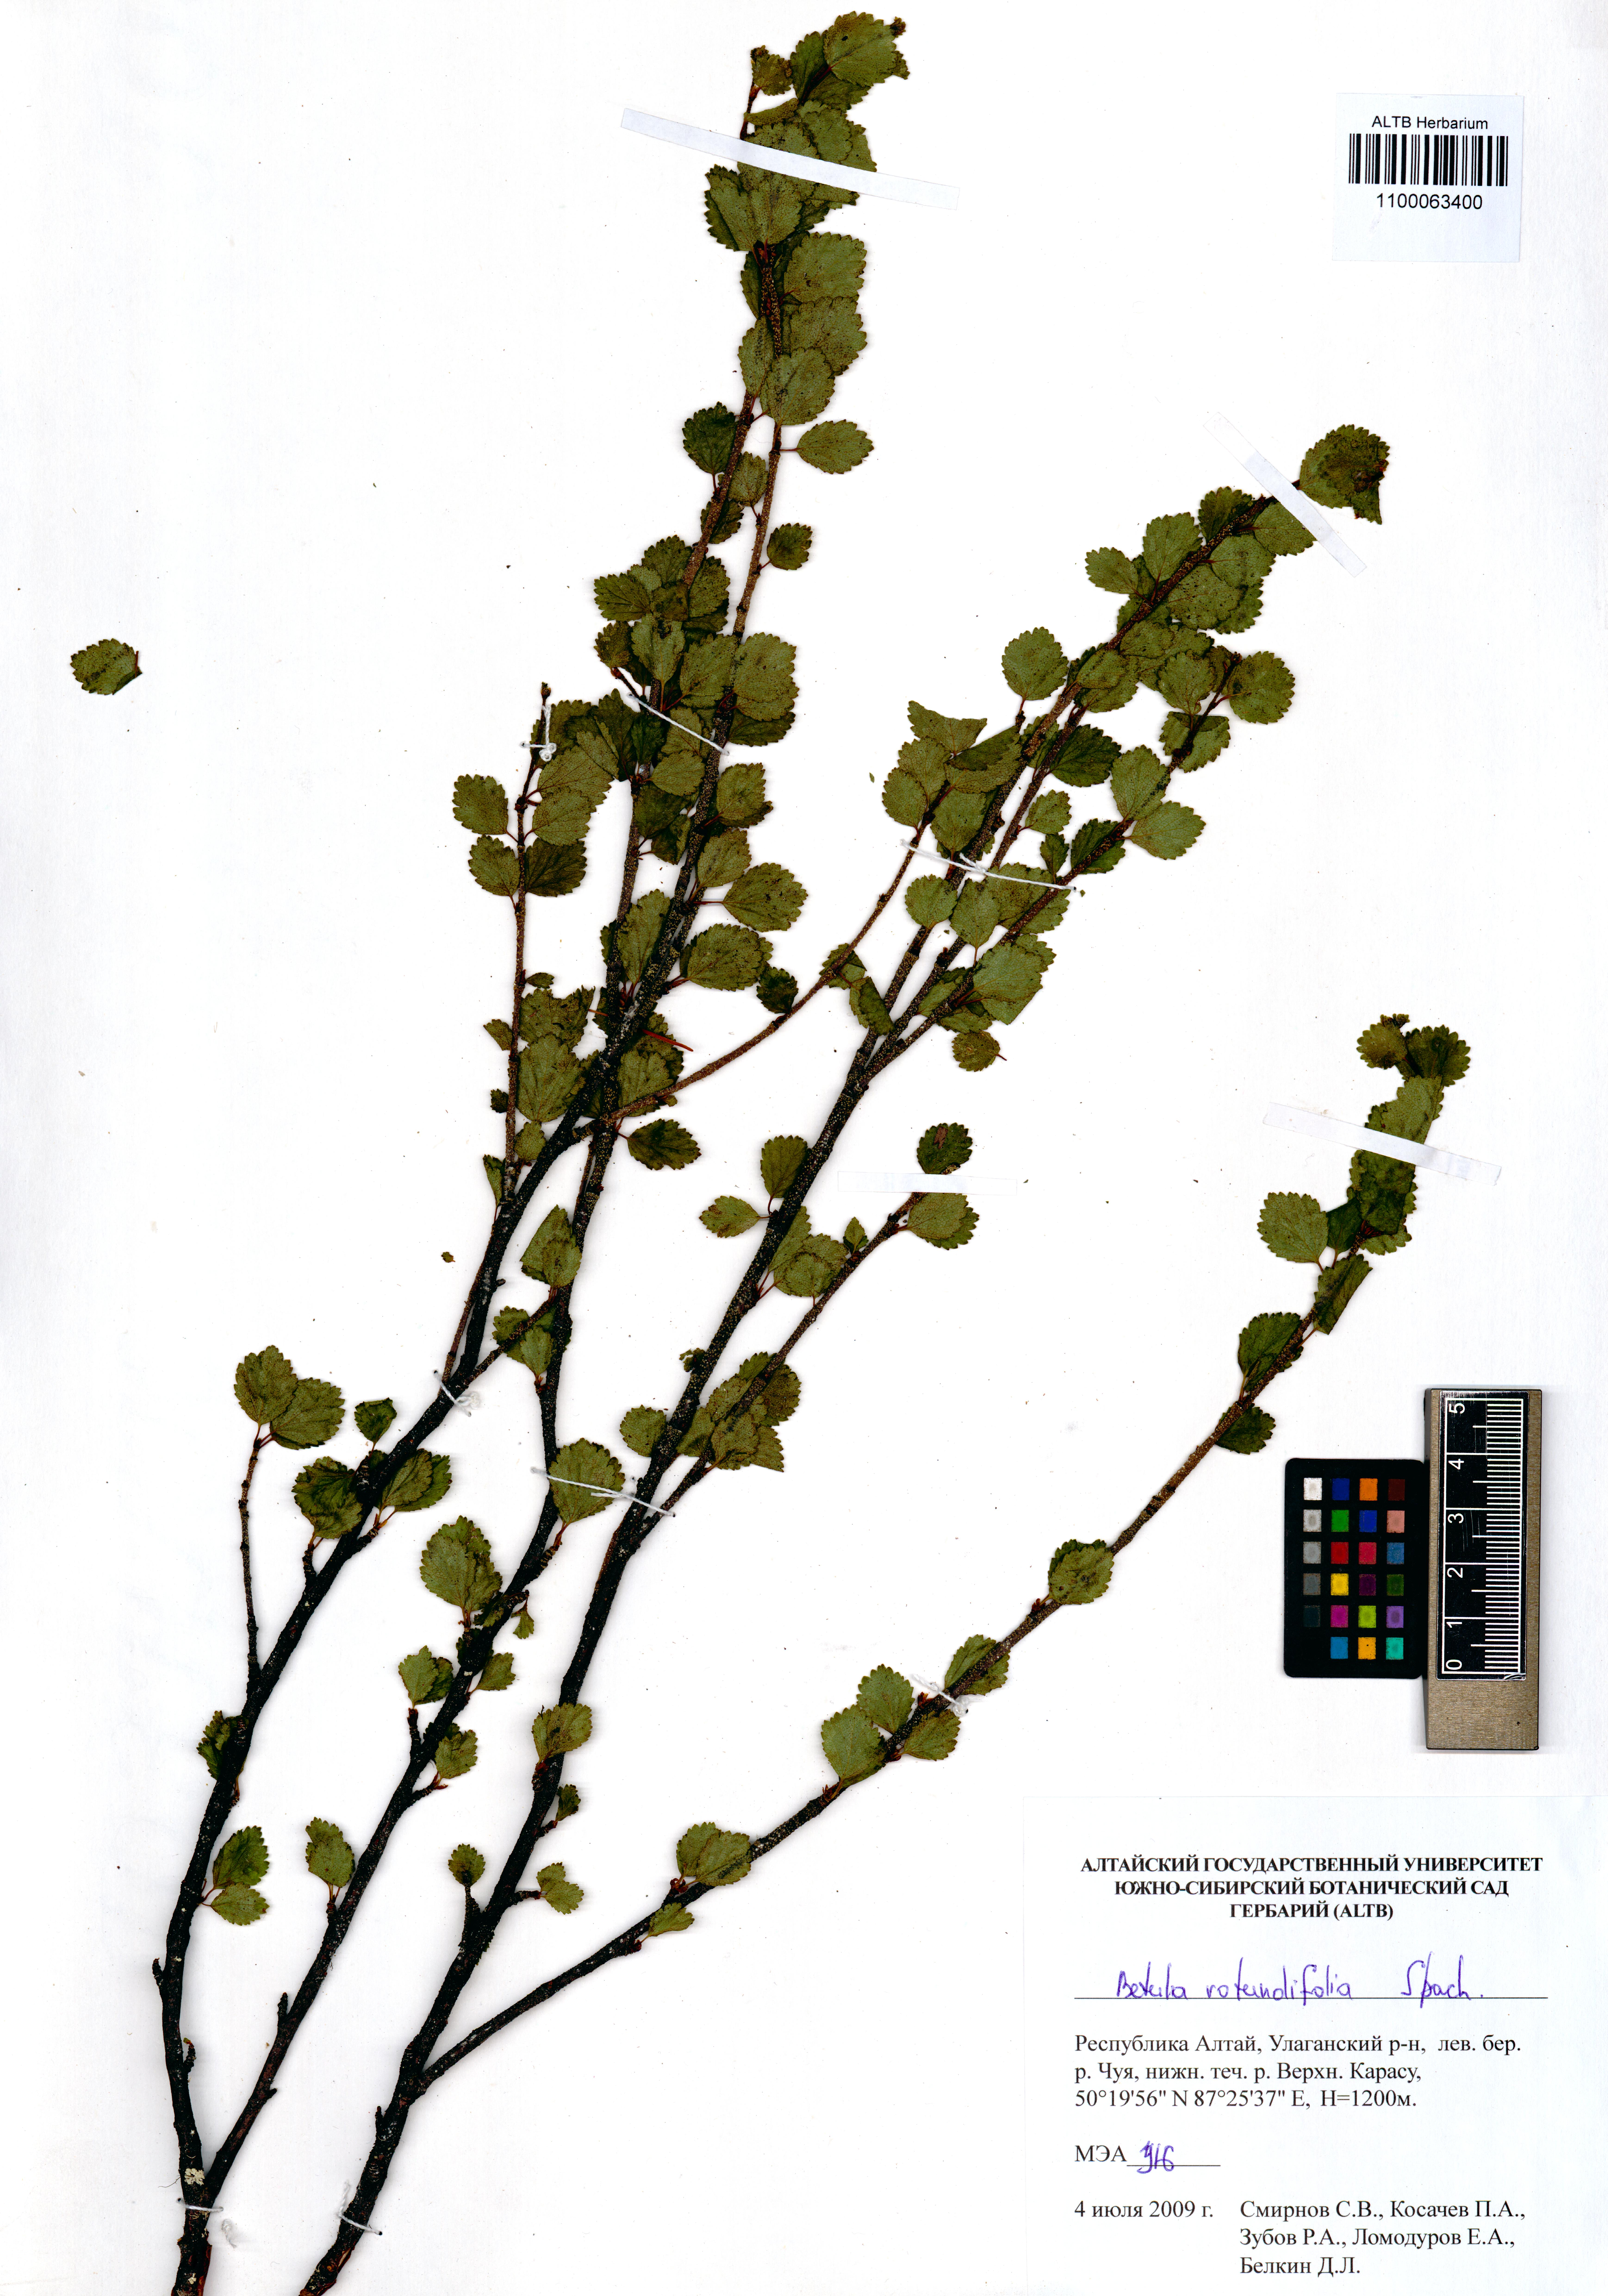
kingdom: Plantae
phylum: Tracheophyta
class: Magnoliopsida
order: Fagales
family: Betulaceae
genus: Betula
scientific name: Betula glandulosa
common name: Dwarf birch
